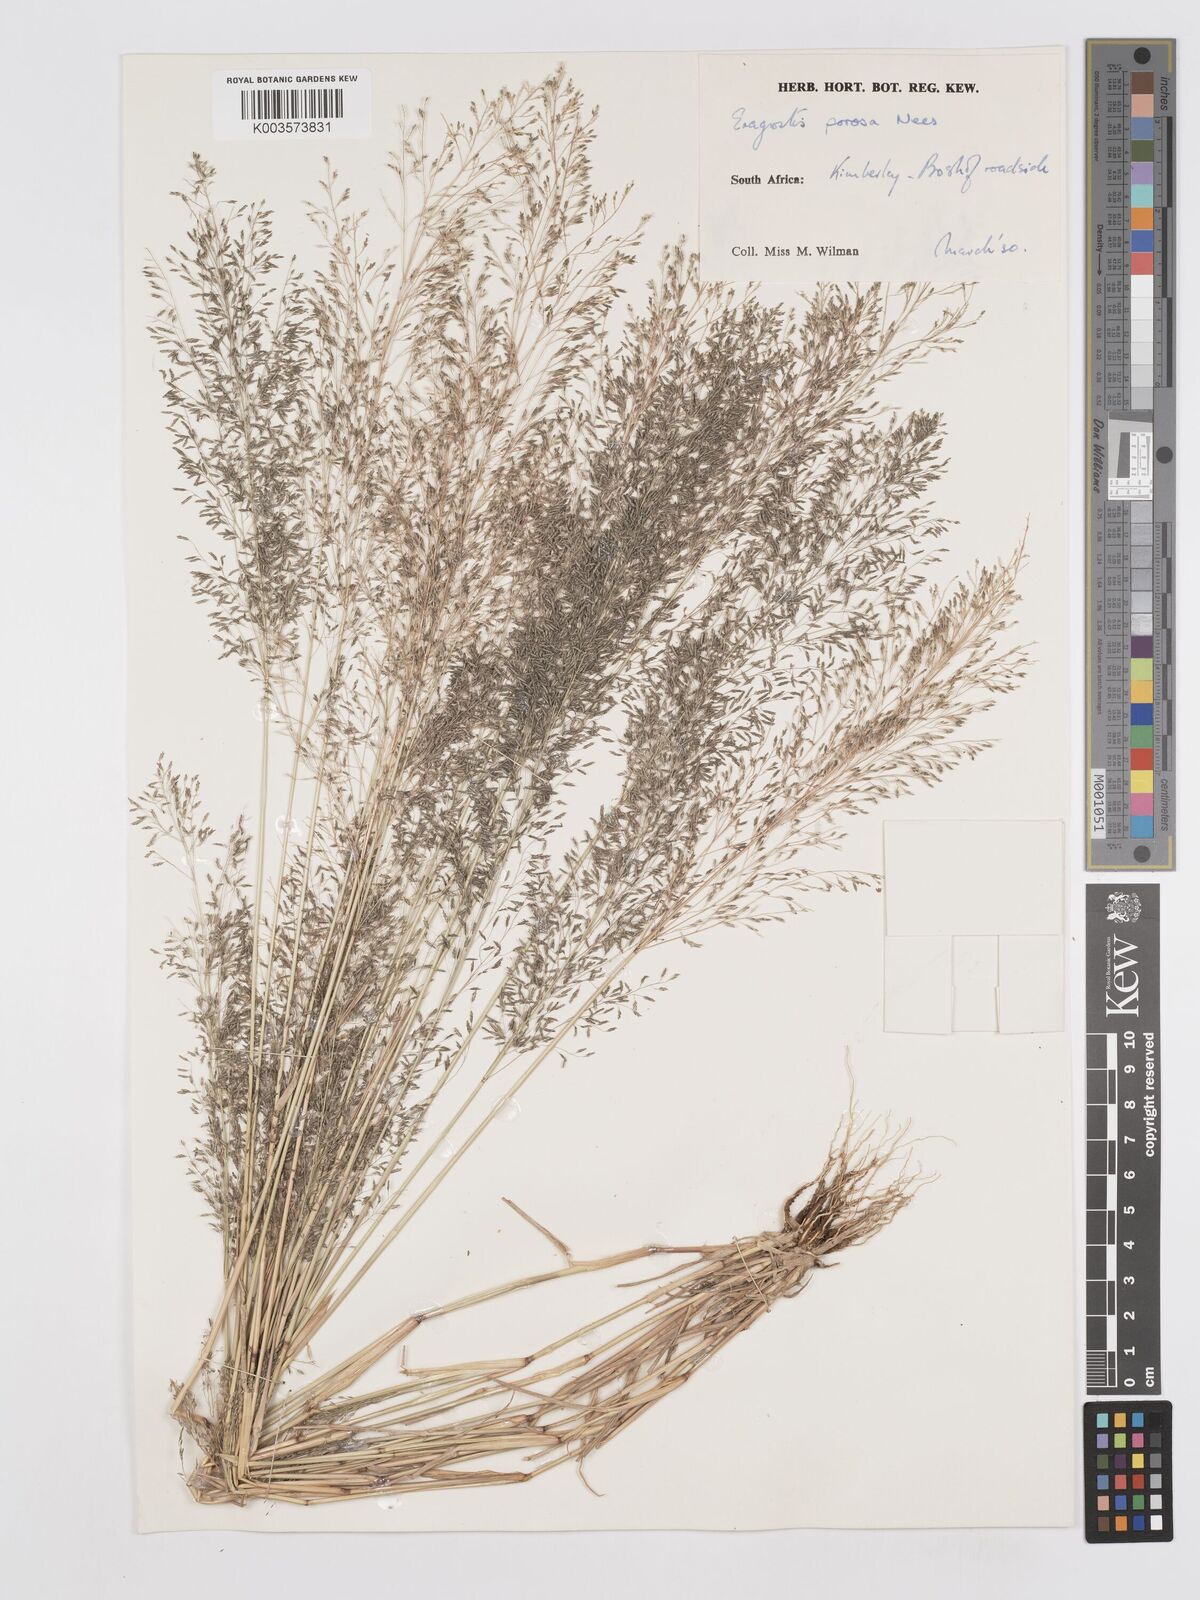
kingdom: Plantae
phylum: Tracheophyta
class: Liliopsida
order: Poales
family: Poaceae
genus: Eragrostis
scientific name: Eragrostis porosa
